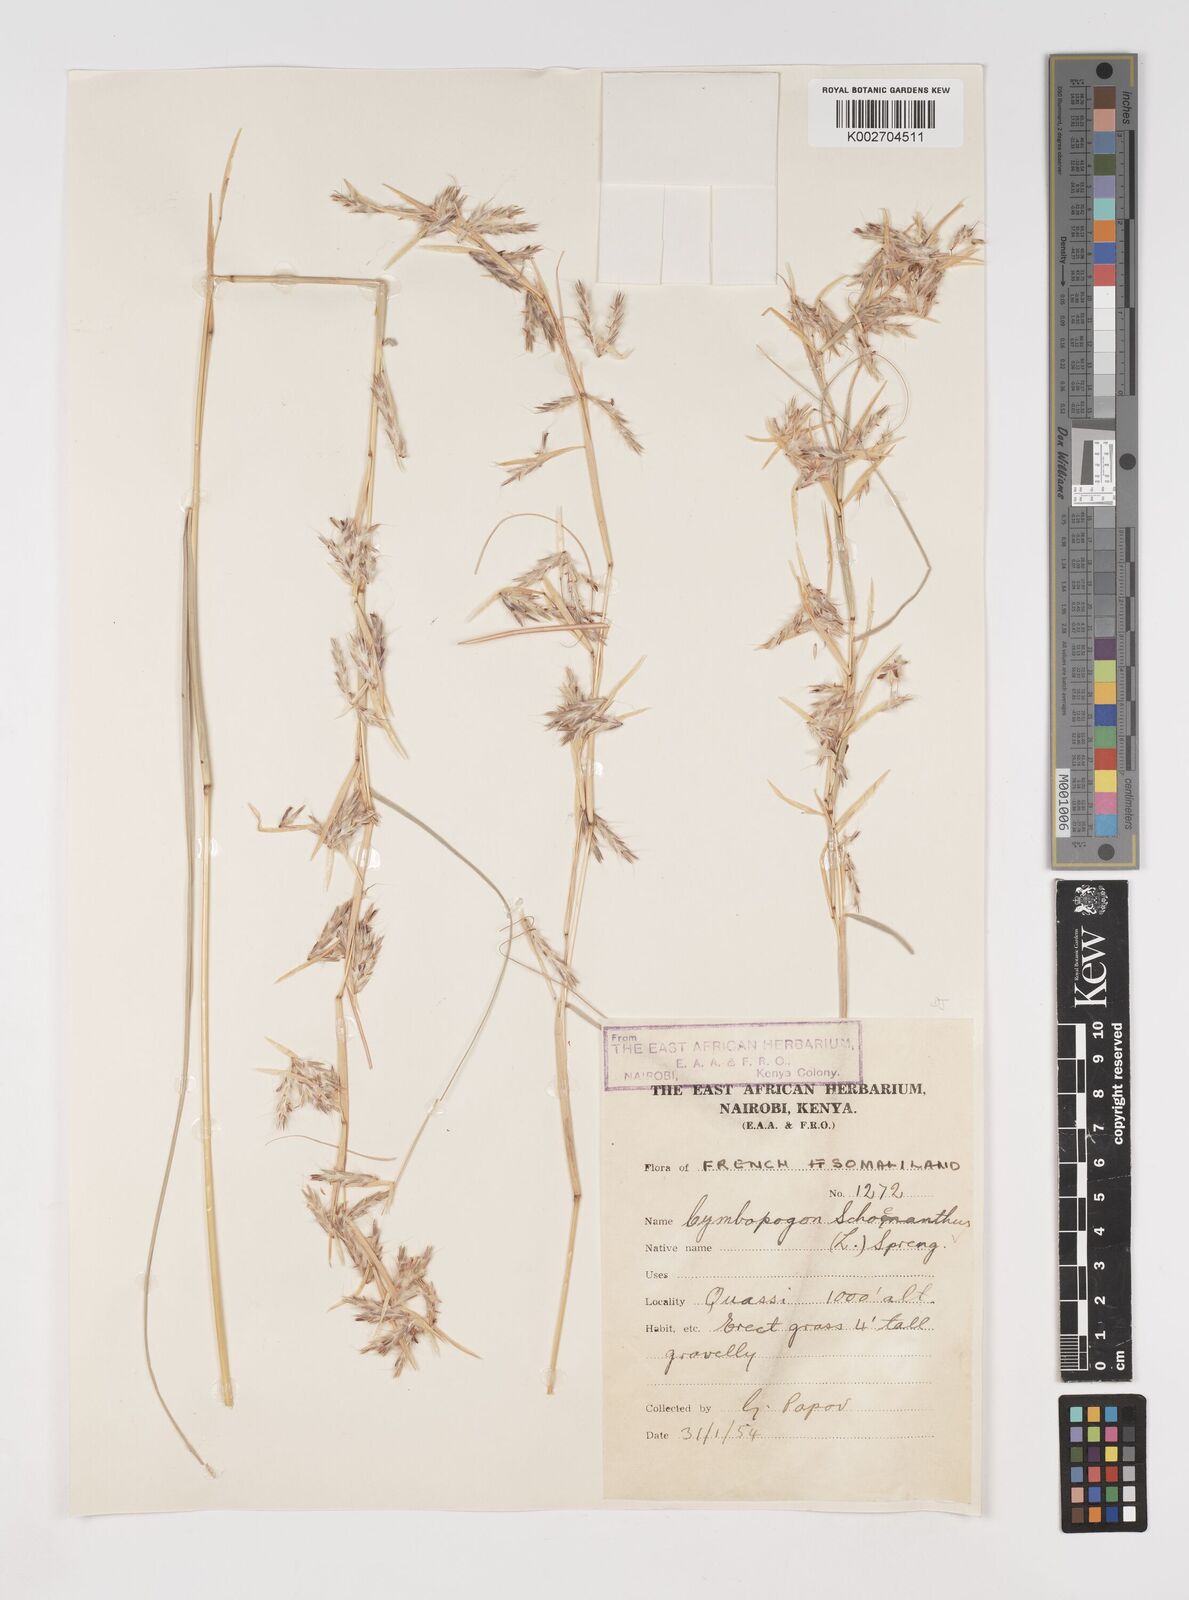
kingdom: Plantae
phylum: Tracheophyta
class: Liliopsida
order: Poales
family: Poaceae
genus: Cymbopogon
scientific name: Cymbopogon schoenanthus
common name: Geranium grass
